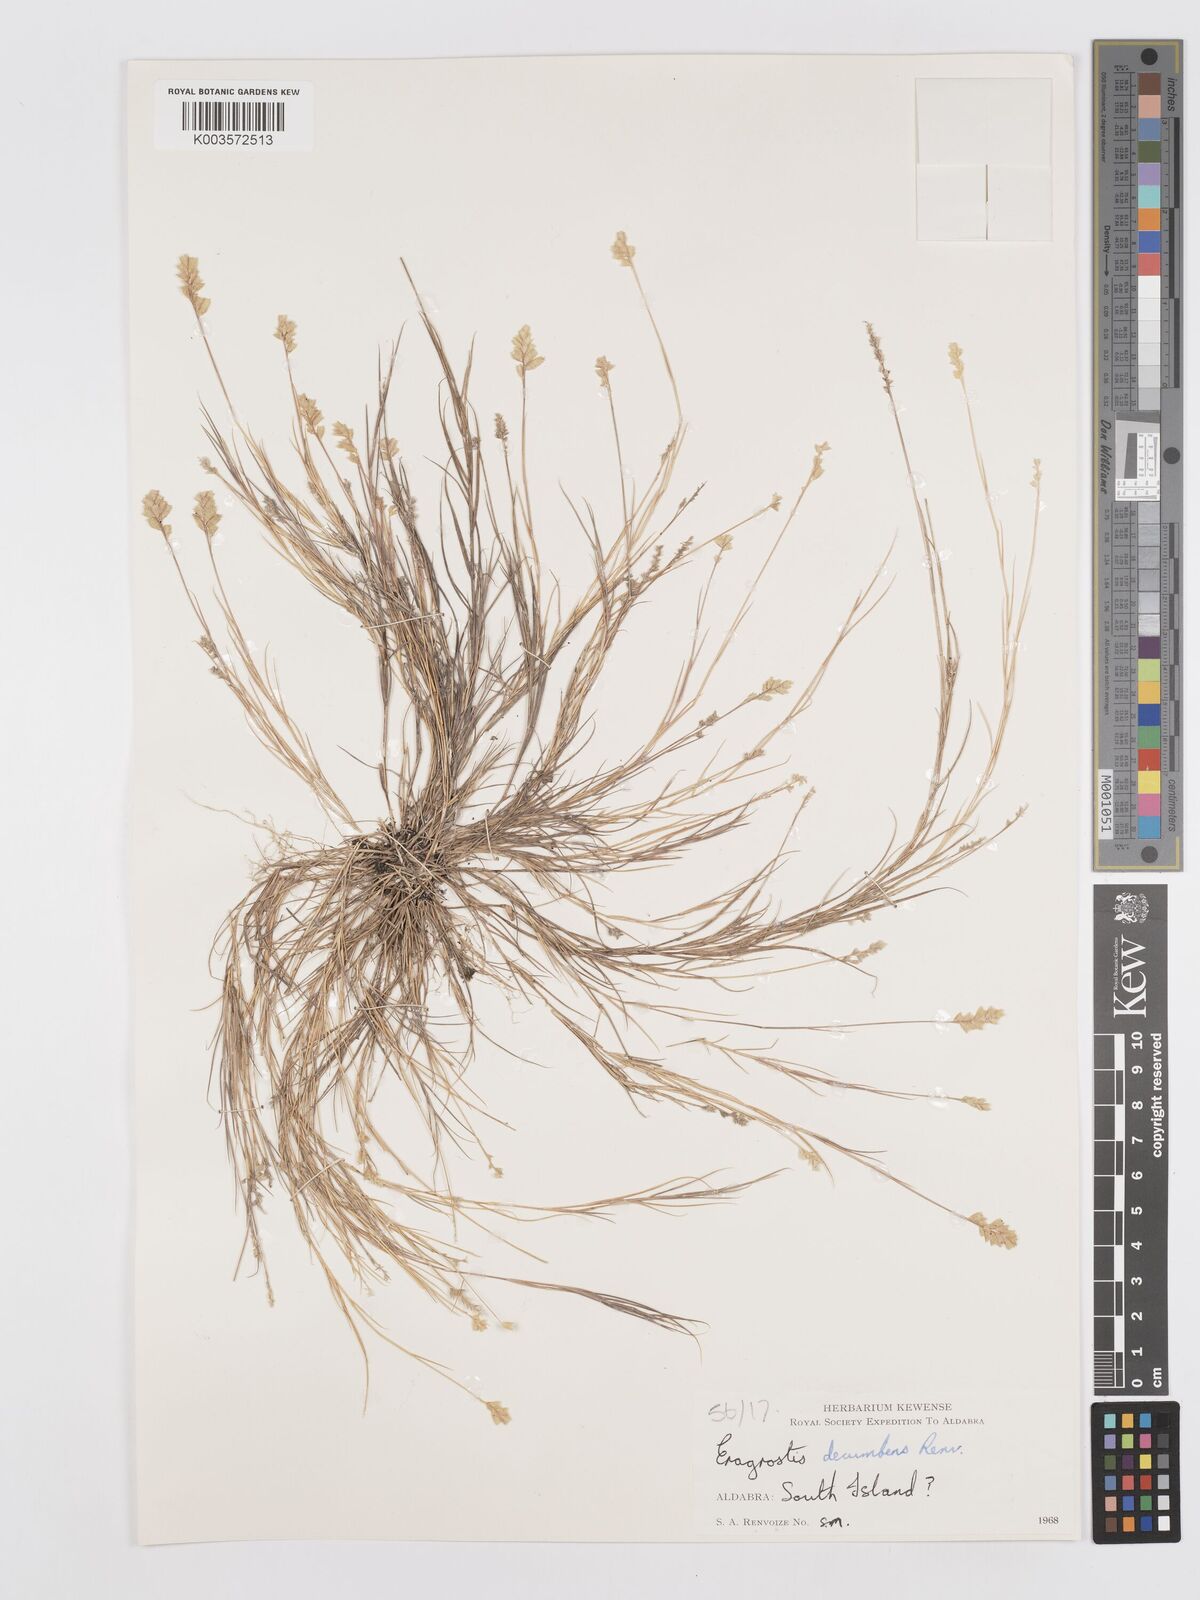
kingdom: Plantae
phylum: Tracheophyta
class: Liliopsida
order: Poales
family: Poaceae
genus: Eragrostis
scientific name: Eragrostis decumbens
